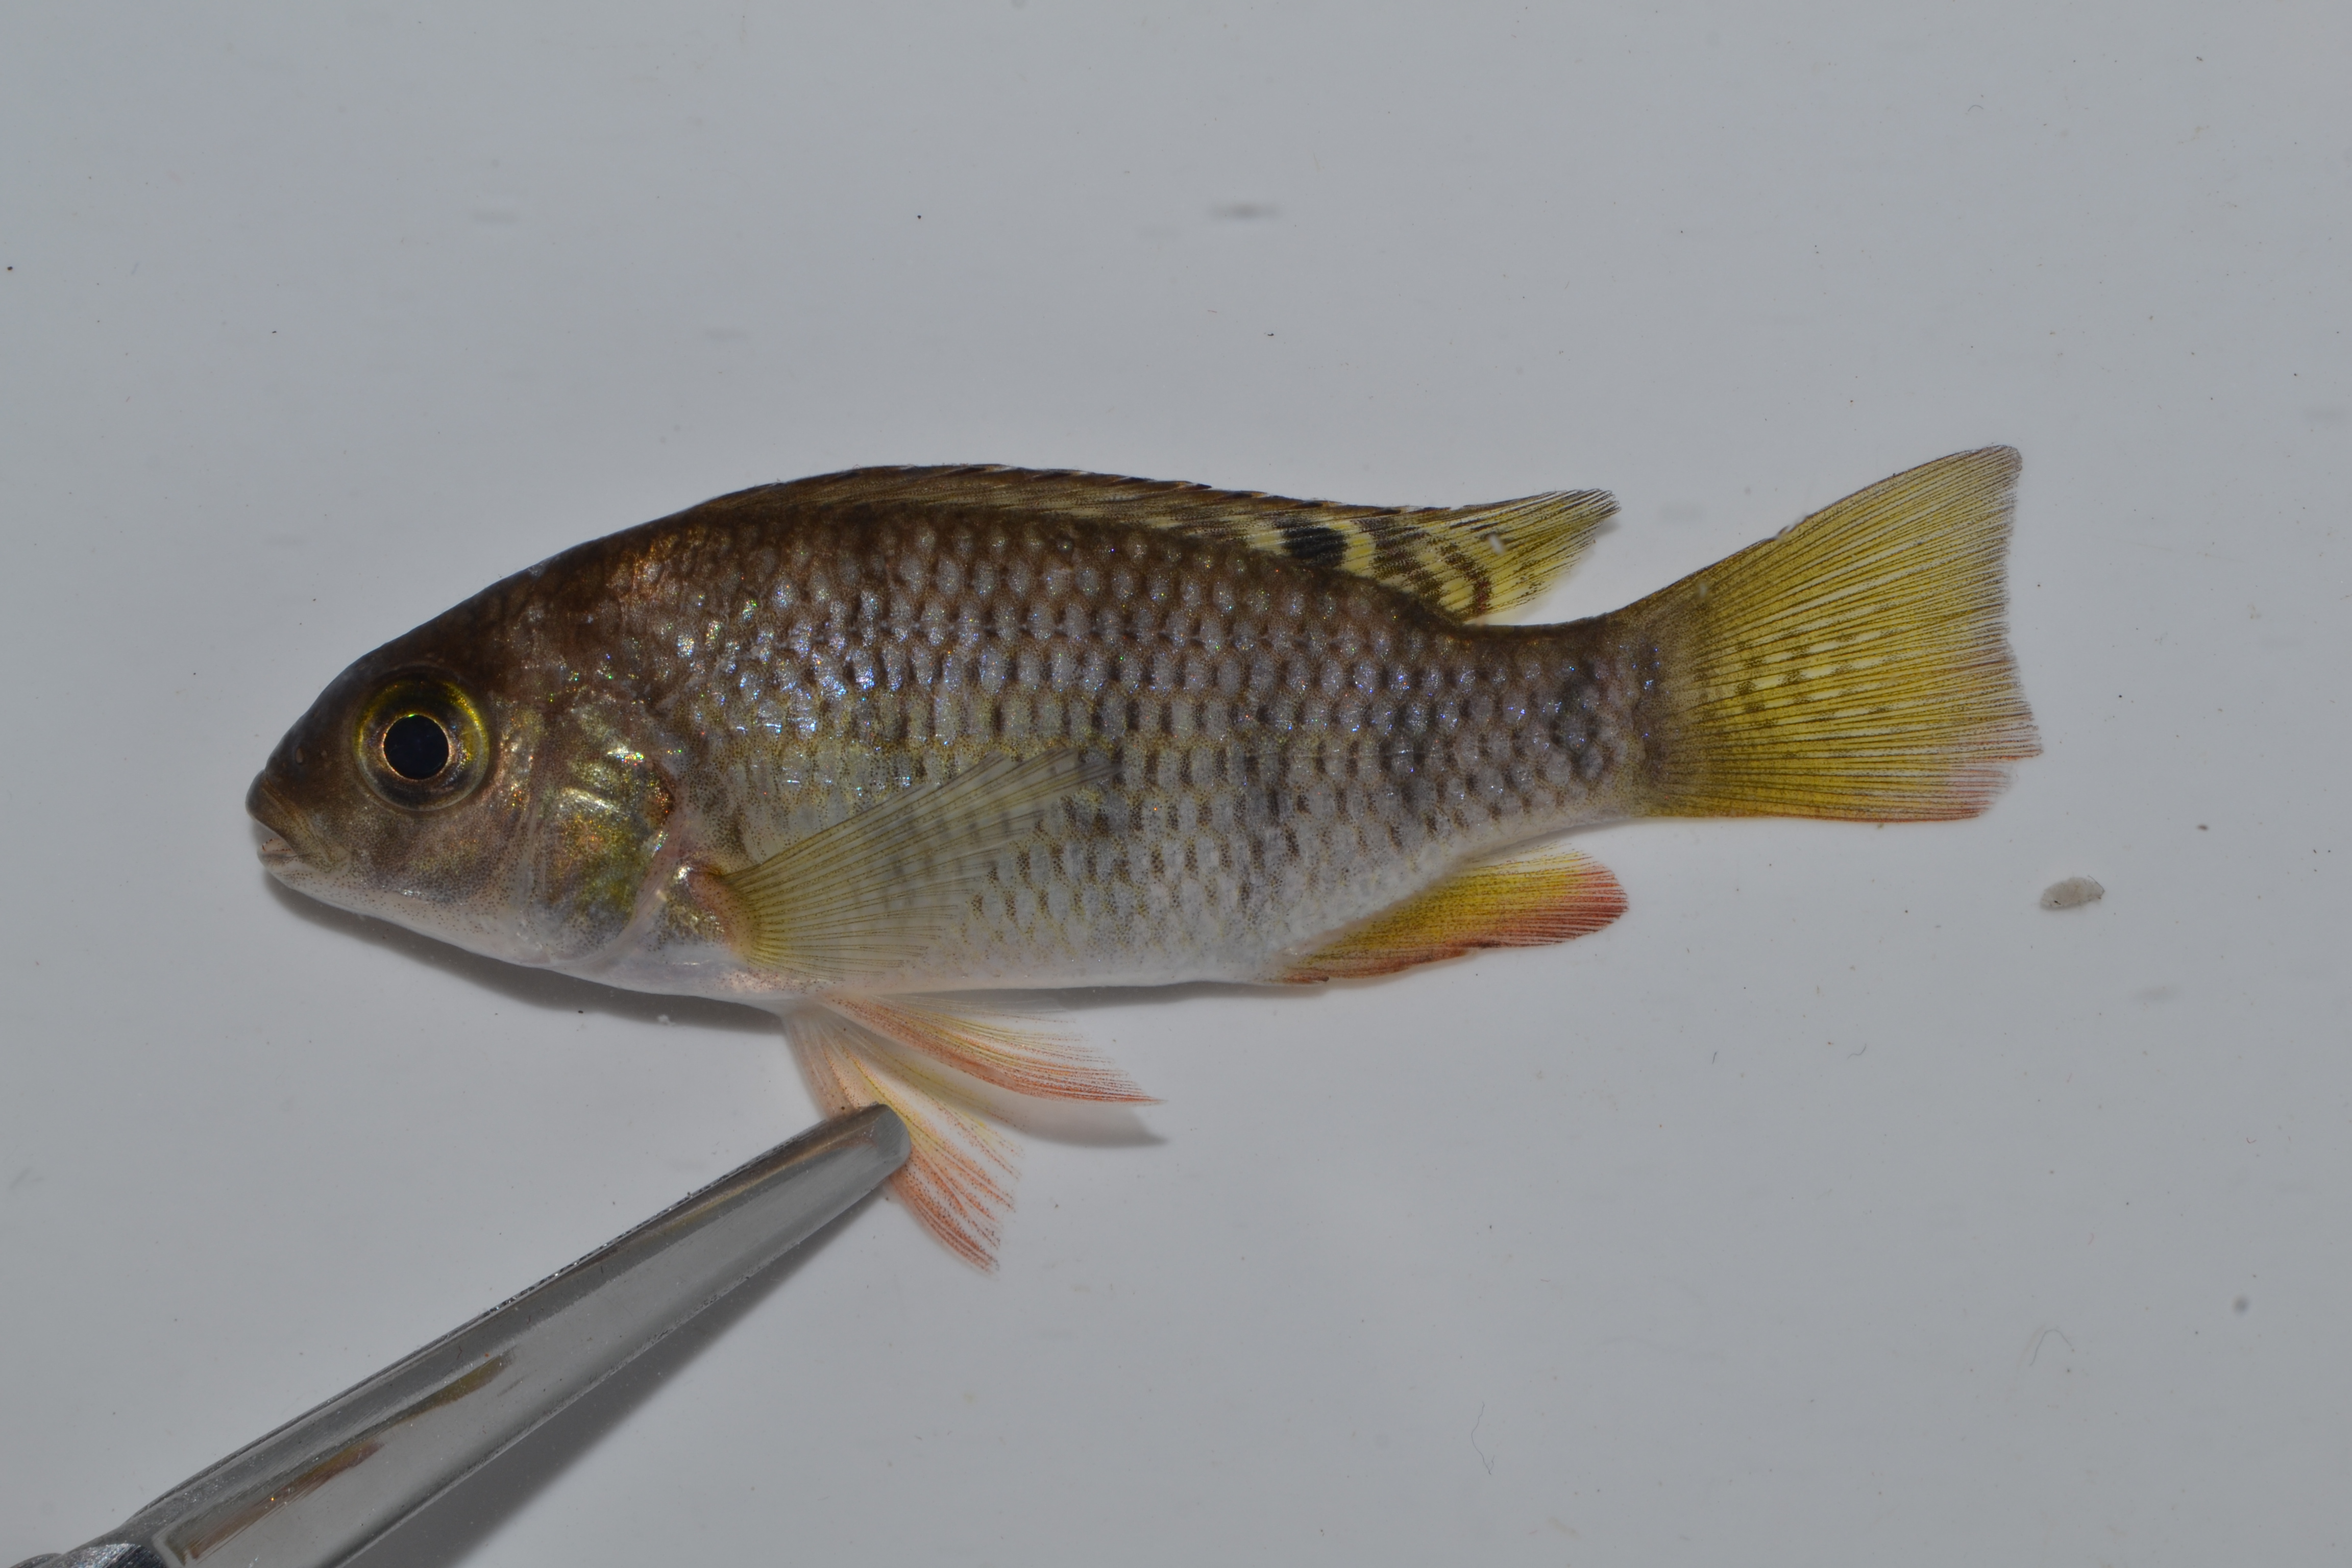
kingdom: Animalia
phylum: Chordata
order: Perciformes
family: Cichlidae
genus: Tilapia
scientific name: Tilapia sparrmanii
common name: Banded tilapia
